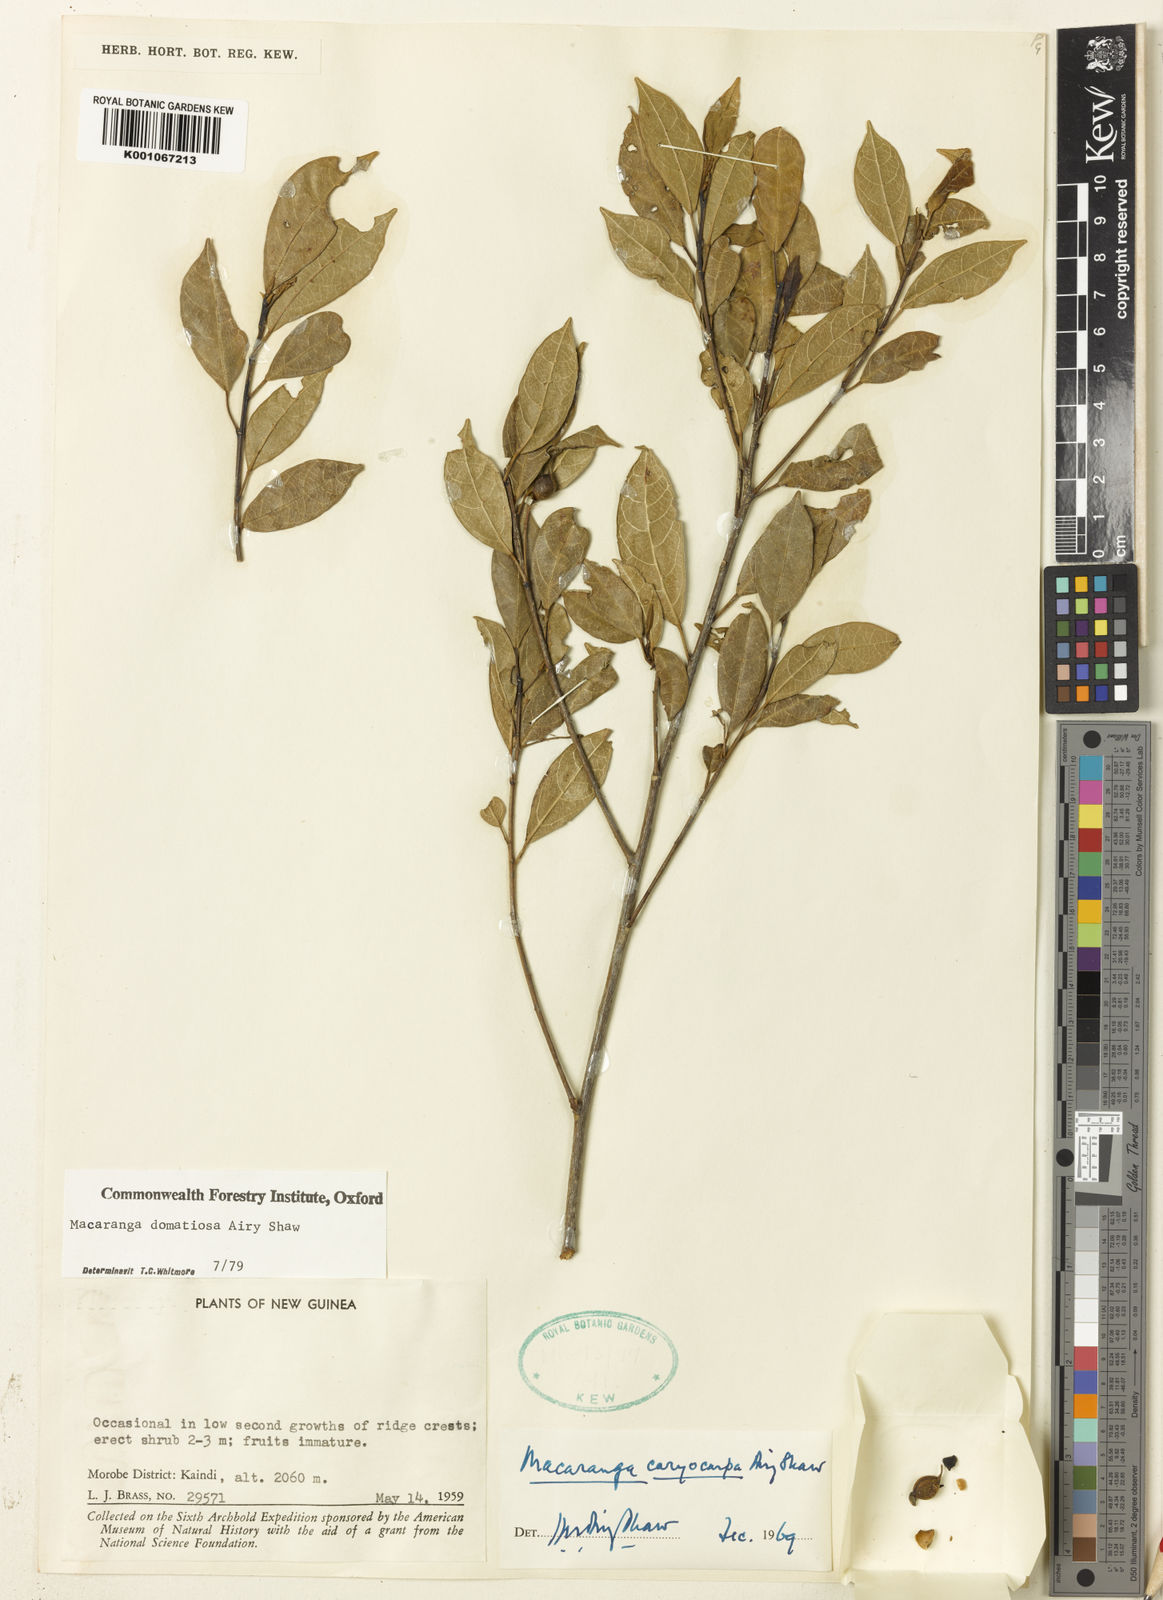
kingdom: Plantae
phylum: Tracheophyta
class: Magnoliopsida
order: Malpighiales
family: Euphorbiaceae
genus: Macaranga
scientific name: Macaranga domatiosa
